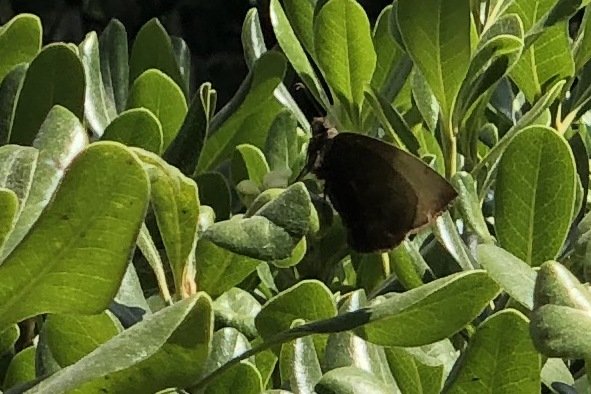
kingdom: Animalia
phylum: Arthropoda
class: Insecta
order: Lepidoptera
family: Hesperiidae
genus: Achlyodes
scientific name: Achlyodes pallida
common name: Pale Sicklewing
